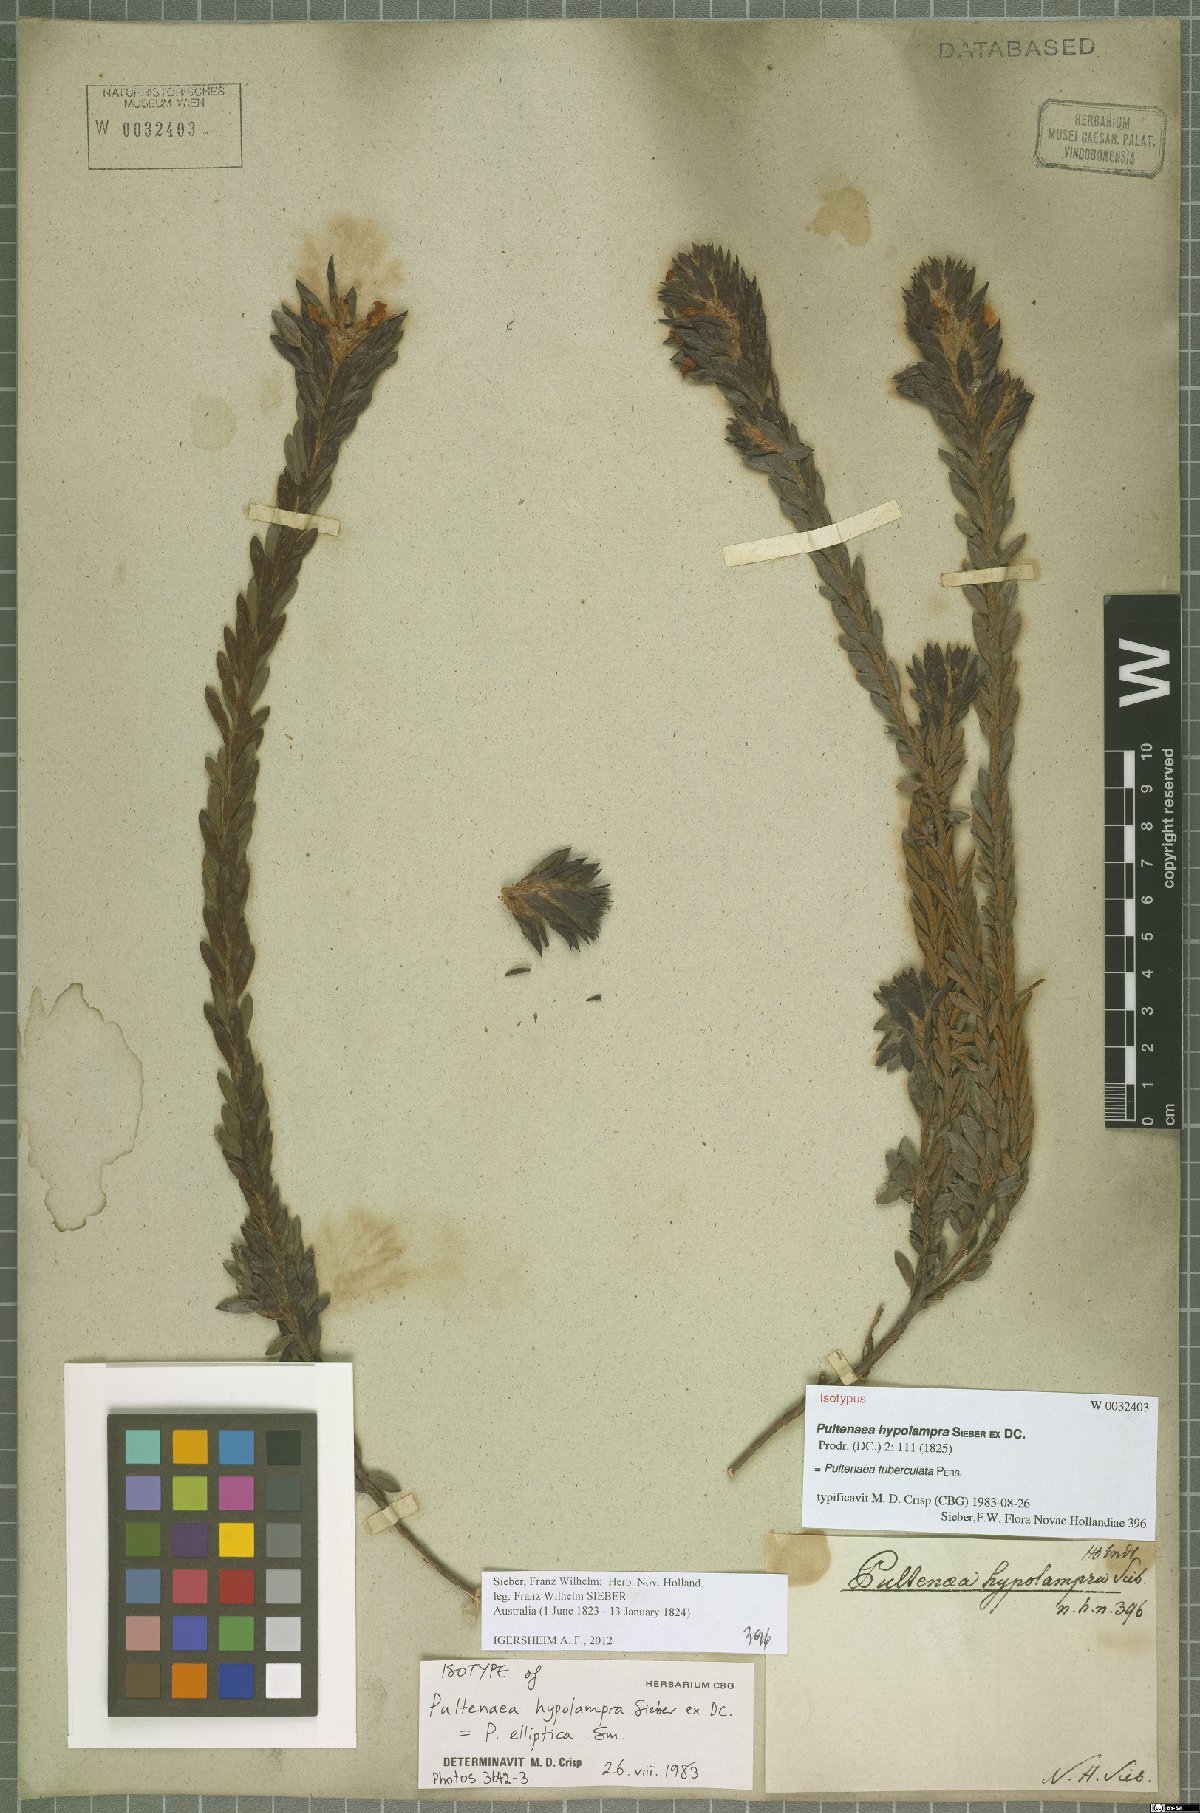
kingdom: Plantae
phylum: Tracheophyta
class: Magnoliopsida
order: Fabales
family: Fabaceae
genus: Pultenaea
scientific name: Pultenaea tuberculata
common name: Wreath bush-pea
